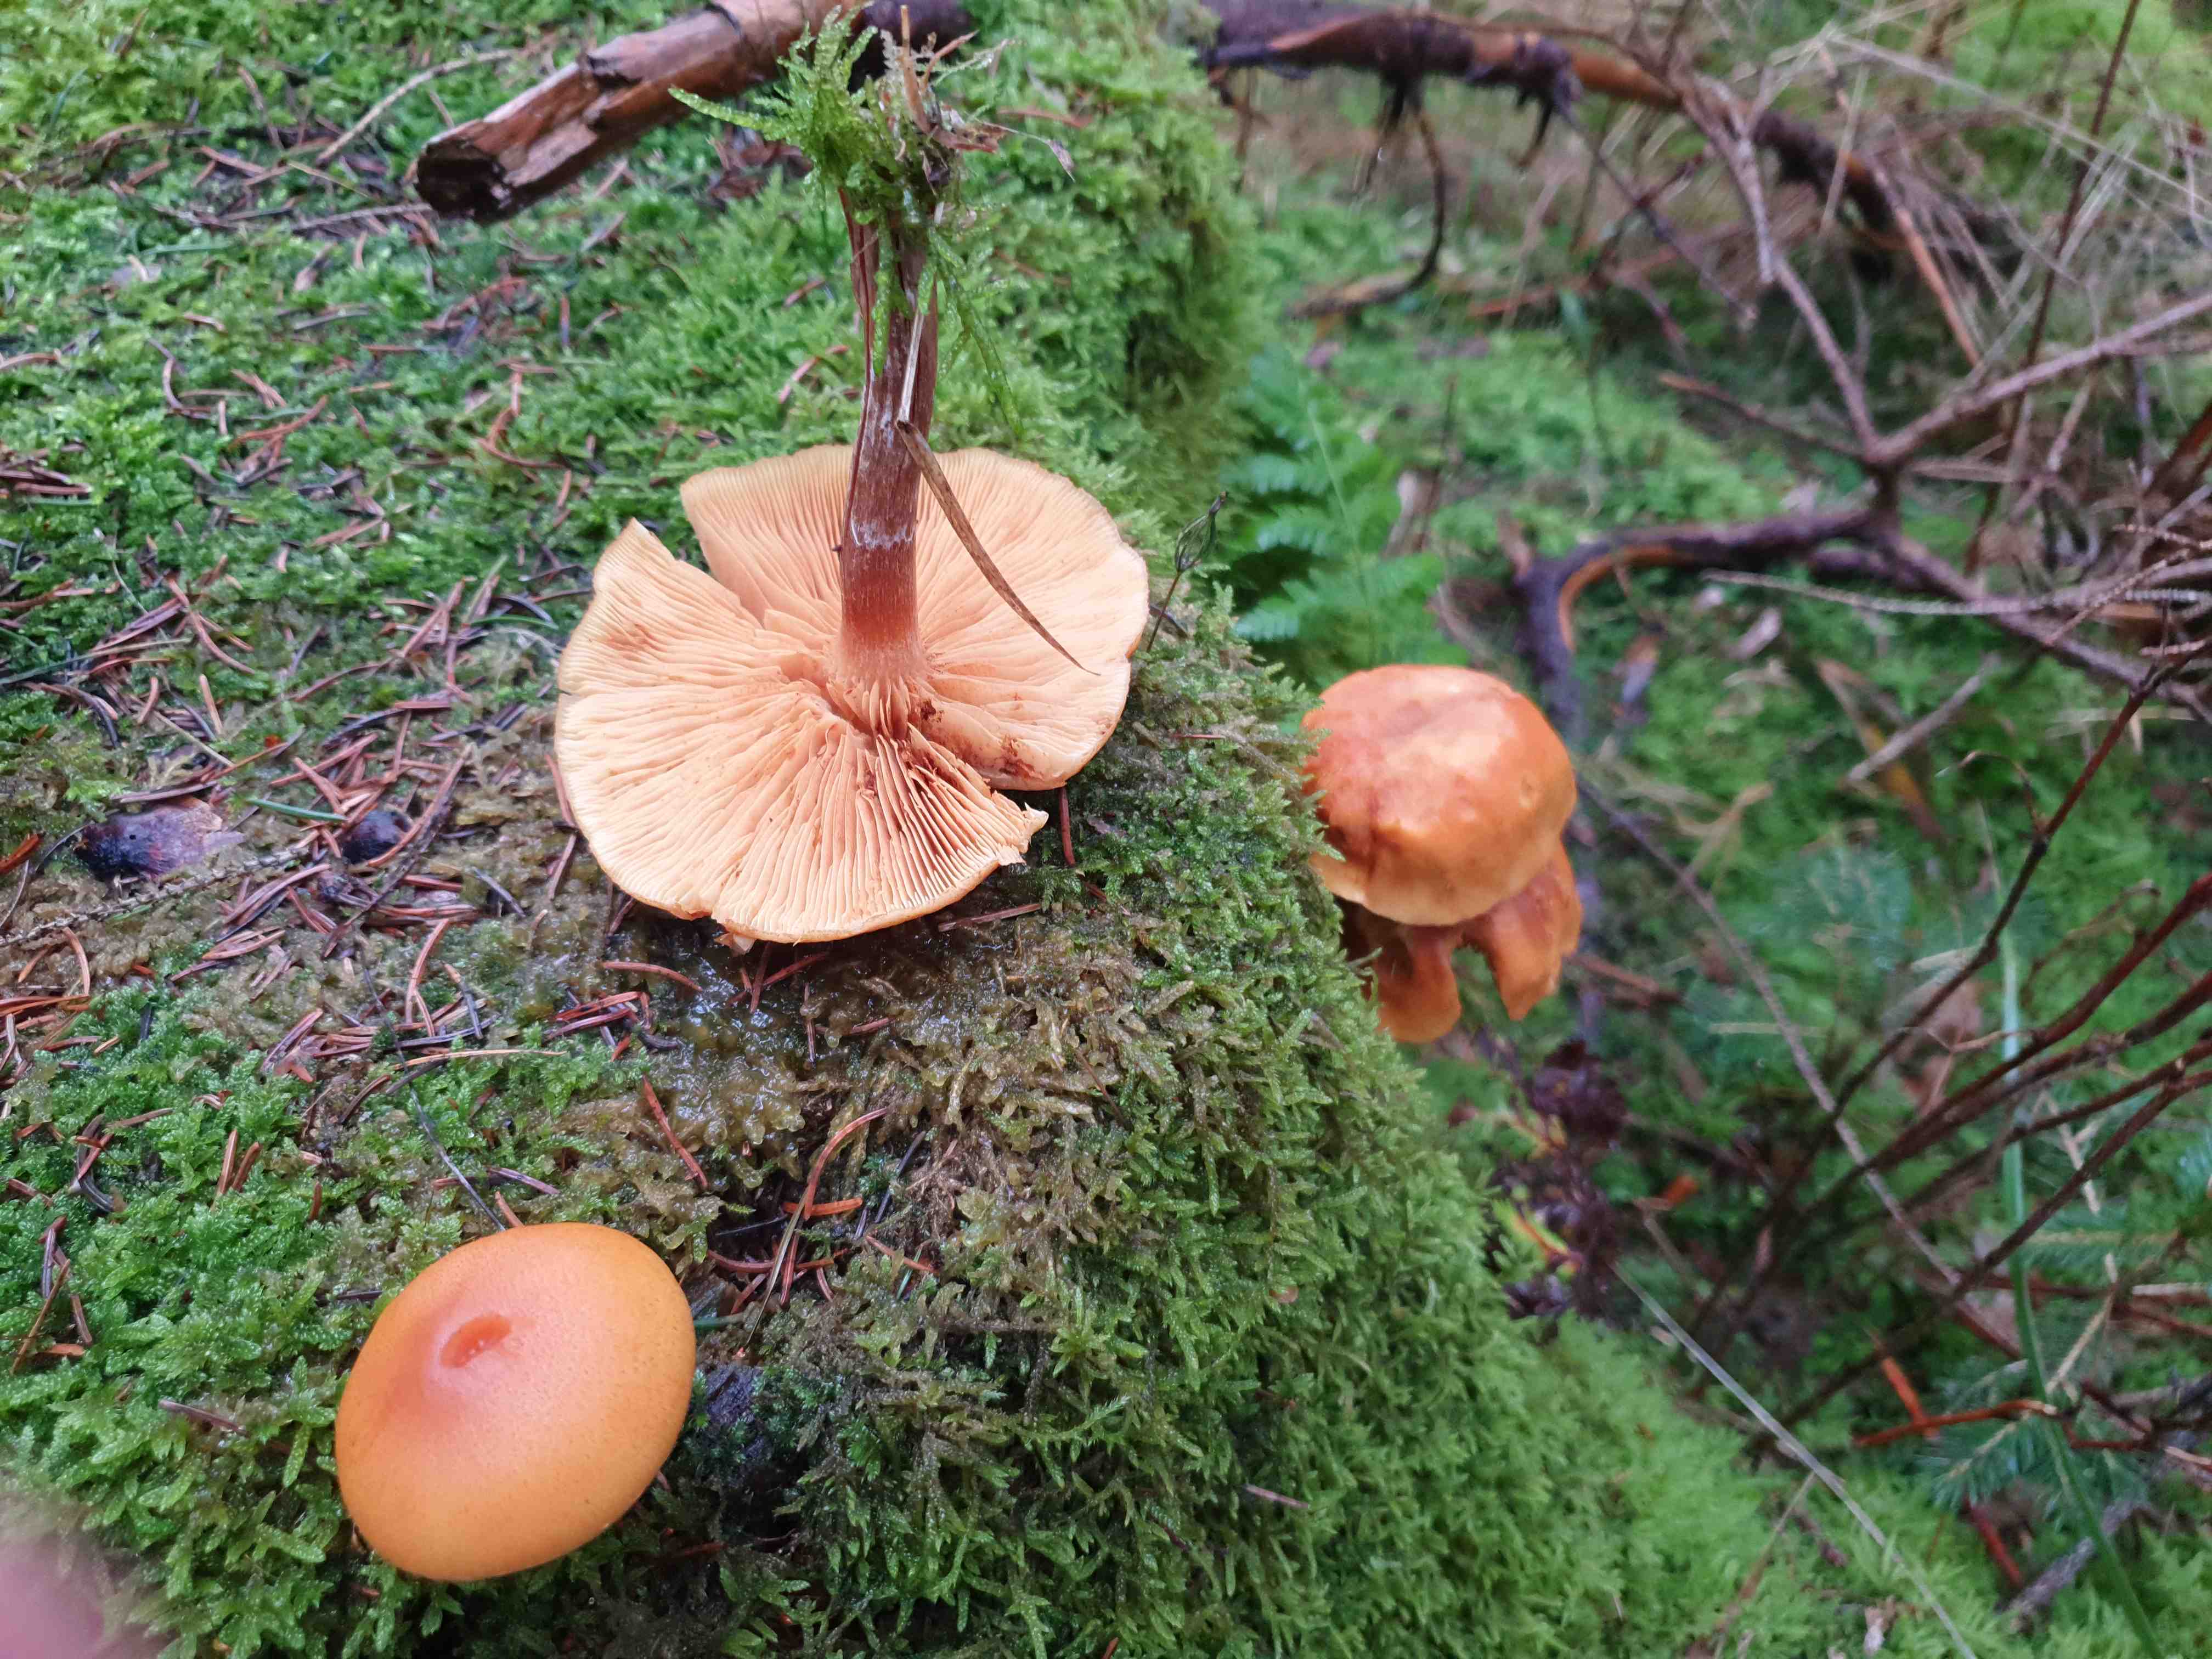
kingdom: Fungi
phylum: Basidiomycota
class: Agaricomycetes
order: Agaricales
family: Hymenogastraceae
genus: Gymnopilus
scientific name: Gymnopilus penetrans
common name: plettet flammehat
